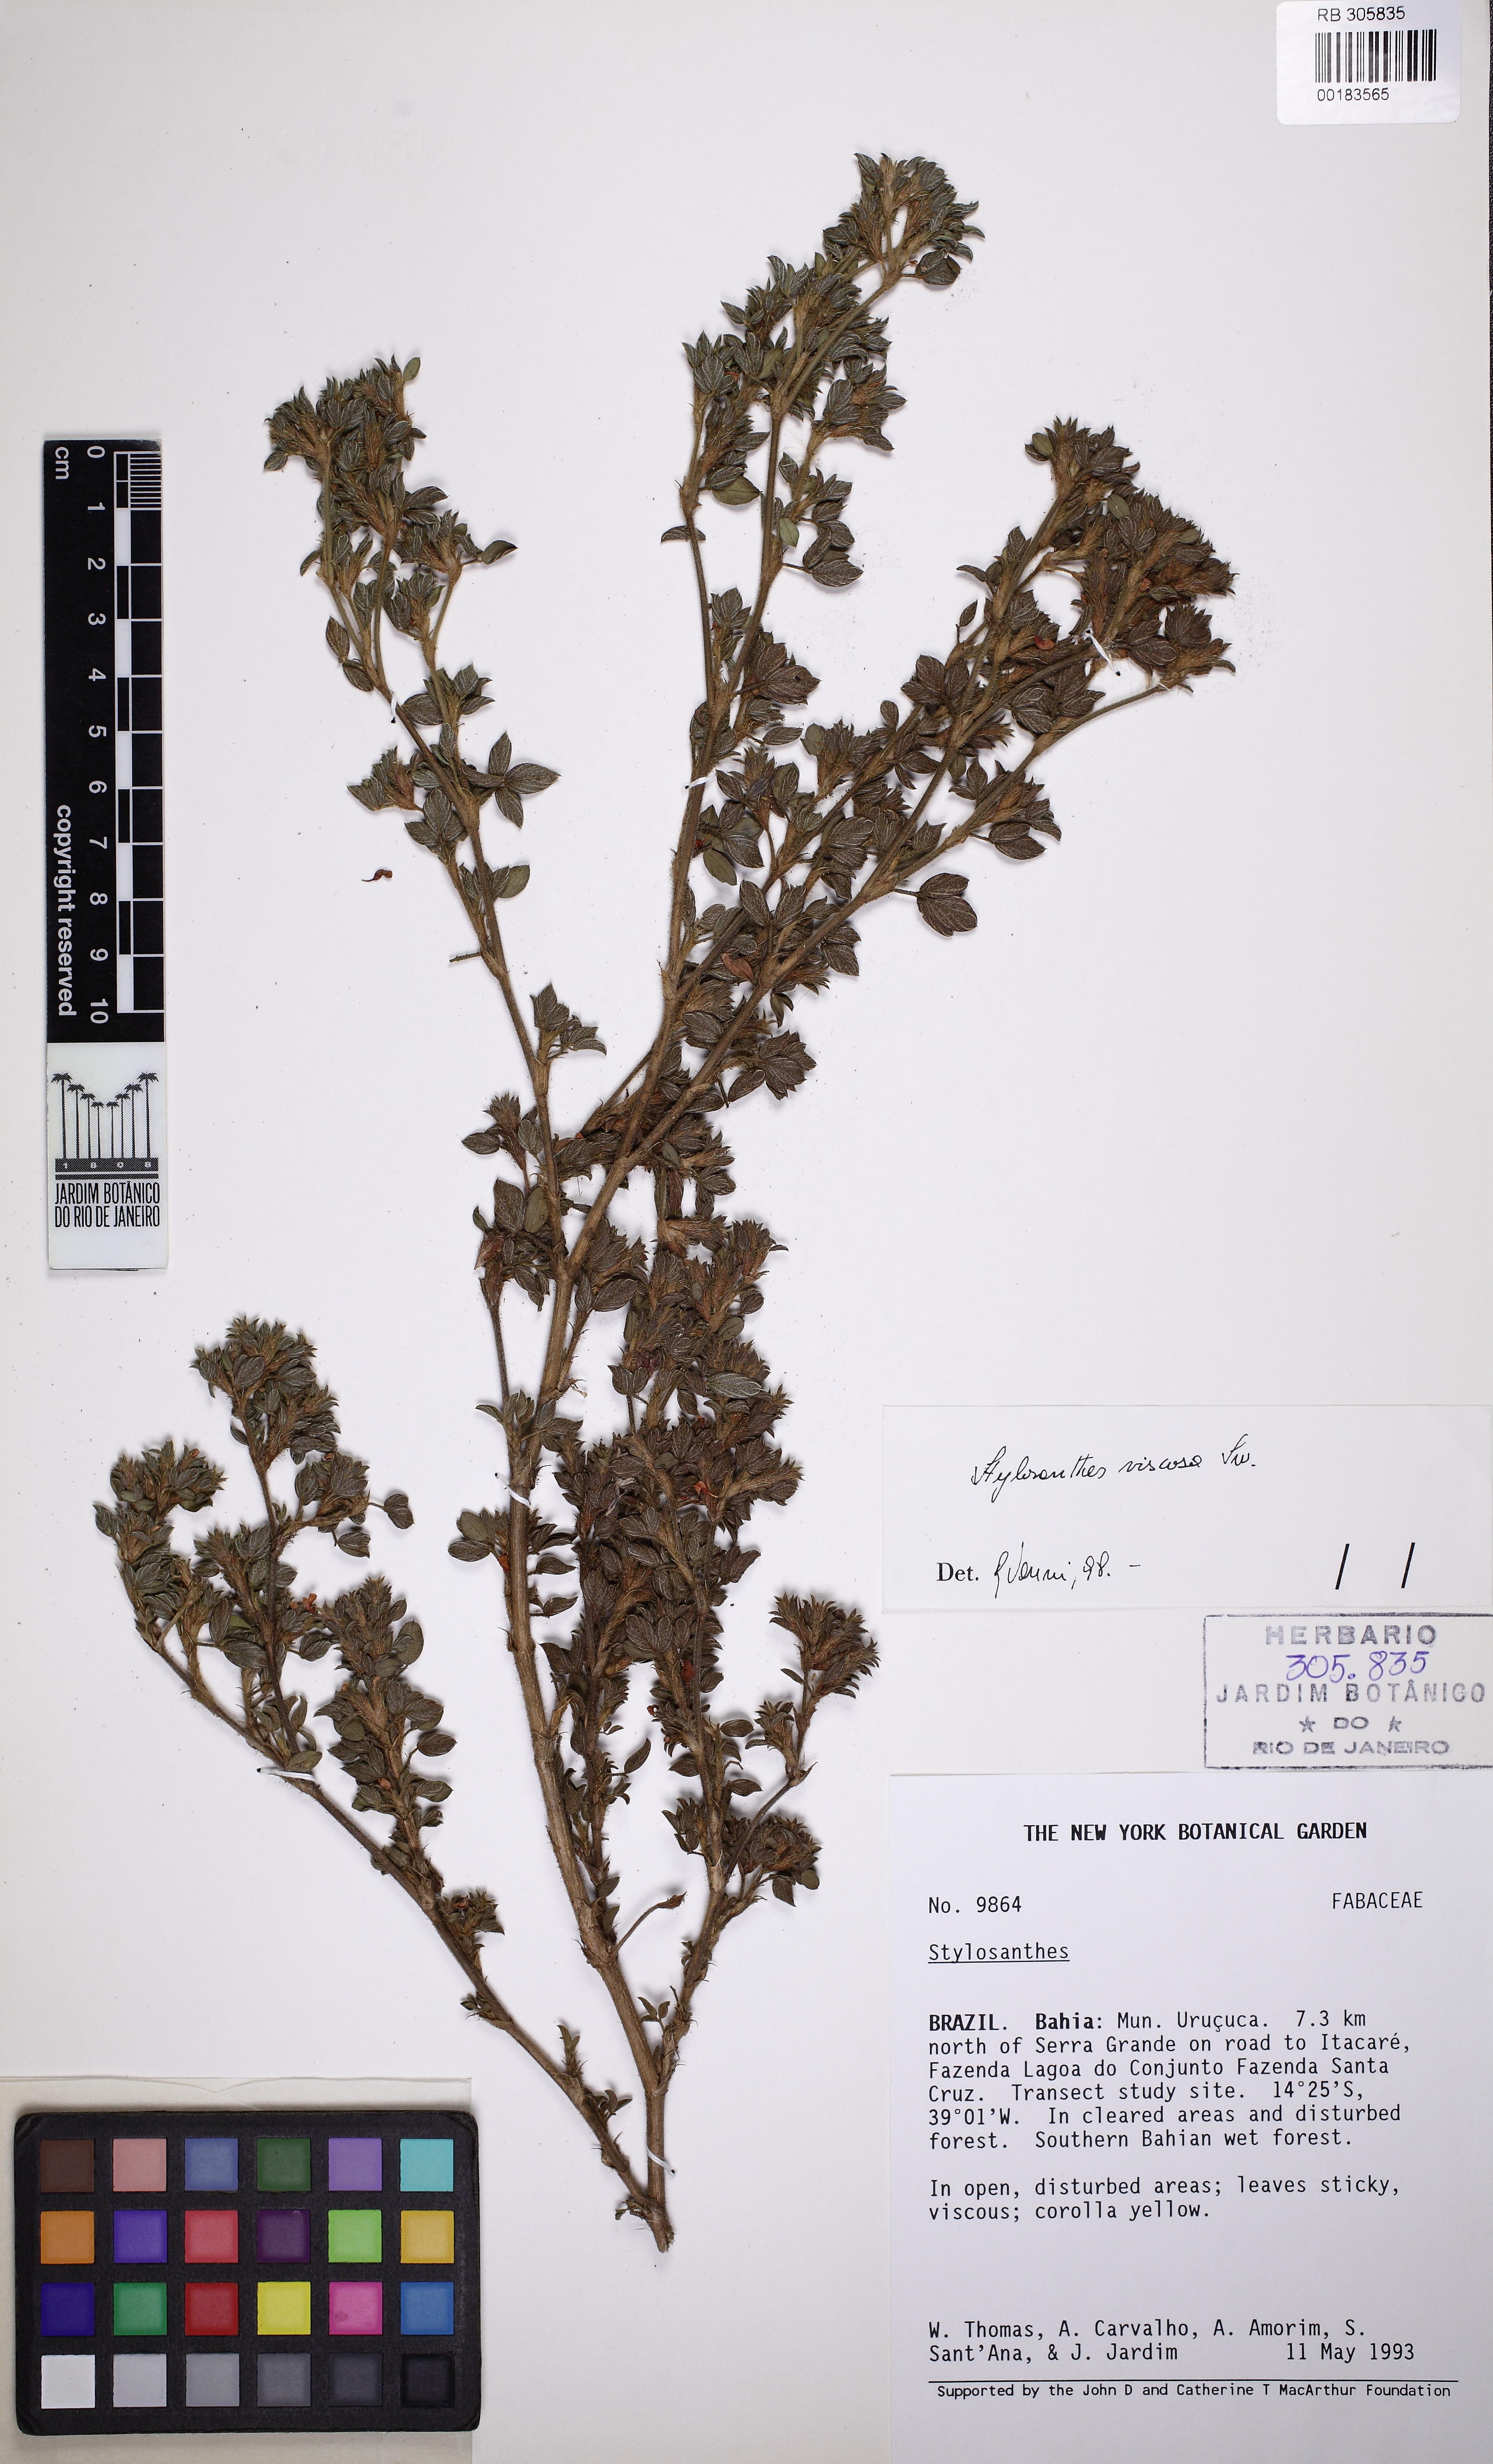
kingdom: Plantae
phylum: Tracheophyta
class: Magnoliopsida
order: Fabales
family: Fabaceae
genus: Stylosanthes
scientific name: Stylosanthes viscosa
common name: Viscid pencil-flower
